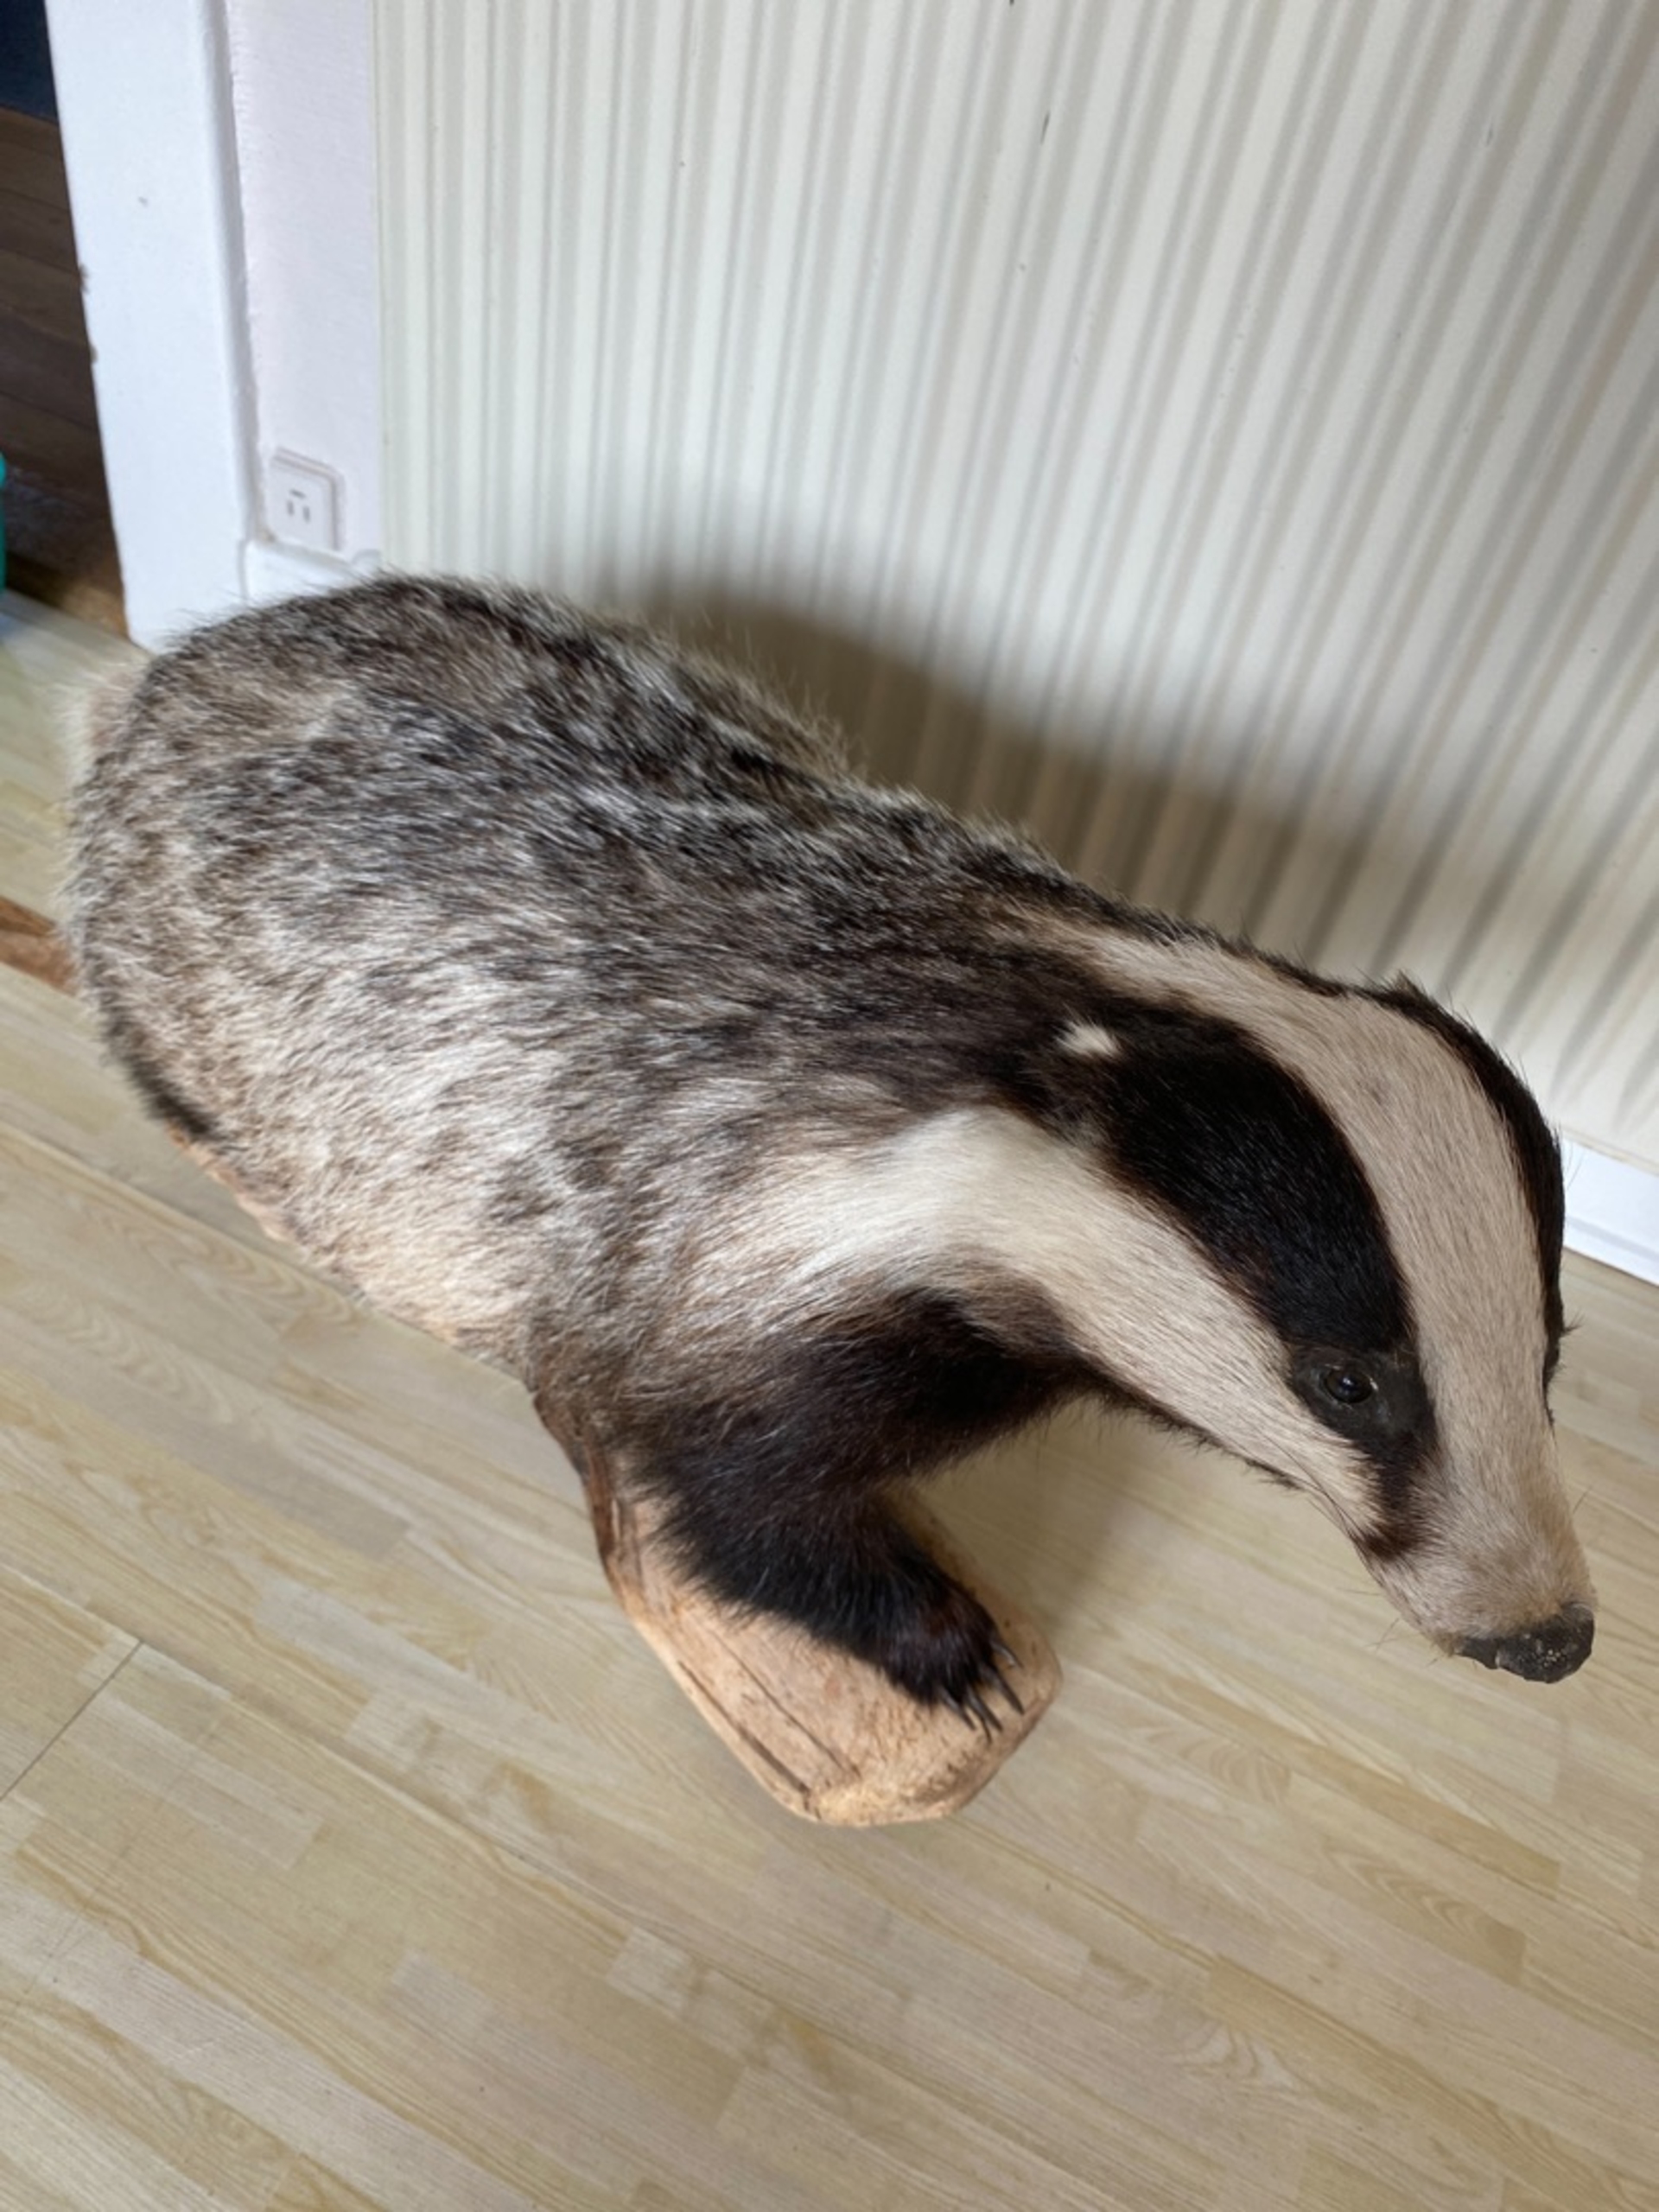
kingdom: Animalia
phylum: Chordata
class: Mammalia
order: Carnivora
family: Mustelidae
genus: Meles
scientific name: Meles meles
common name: Grævling
